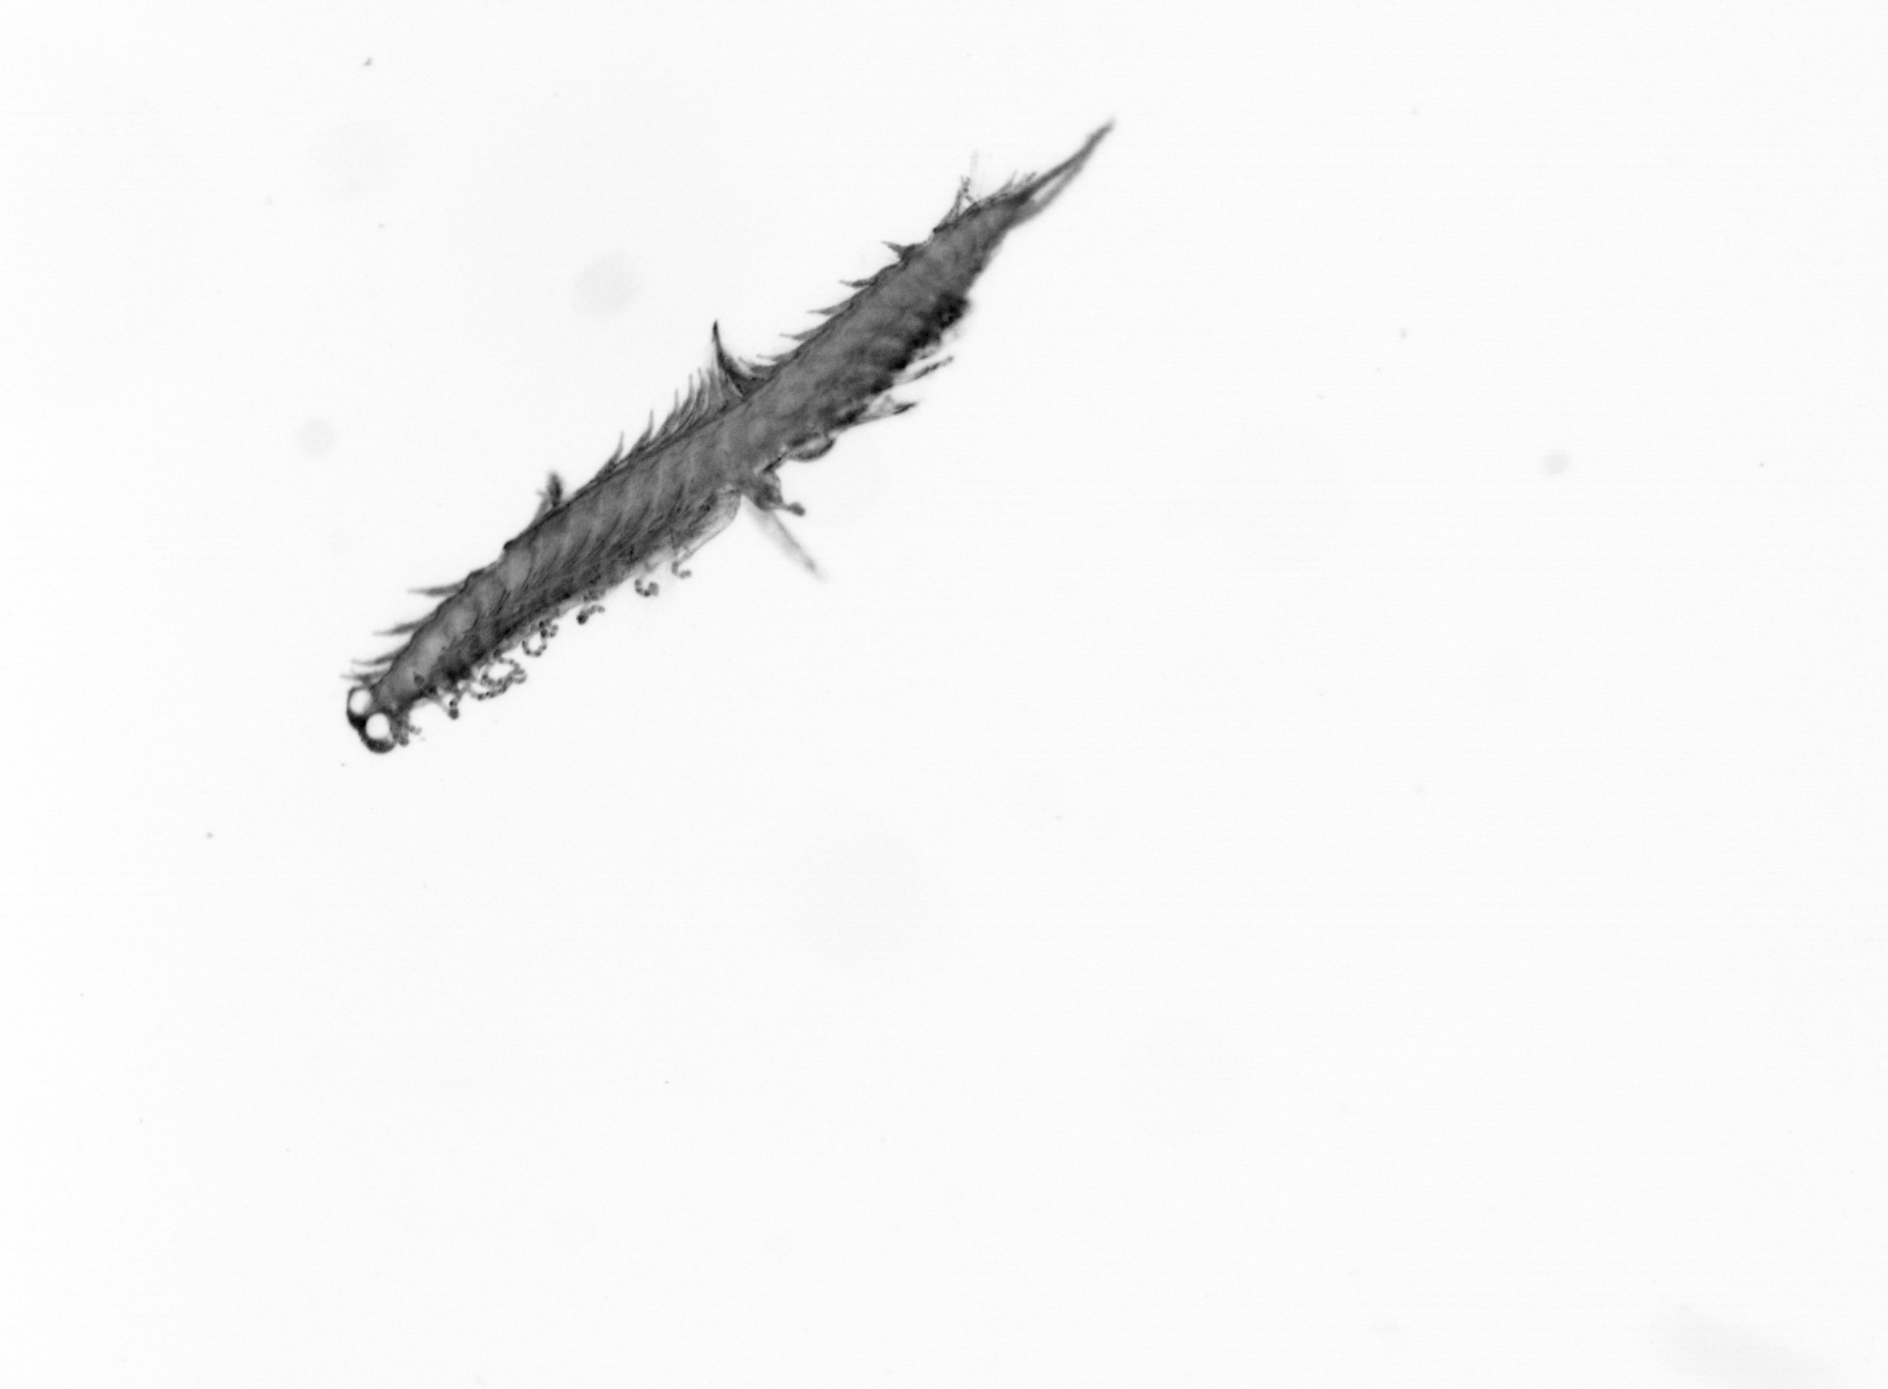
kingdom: Animalia
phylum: Annelida
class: Polychaeta
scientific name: Polychaeta
